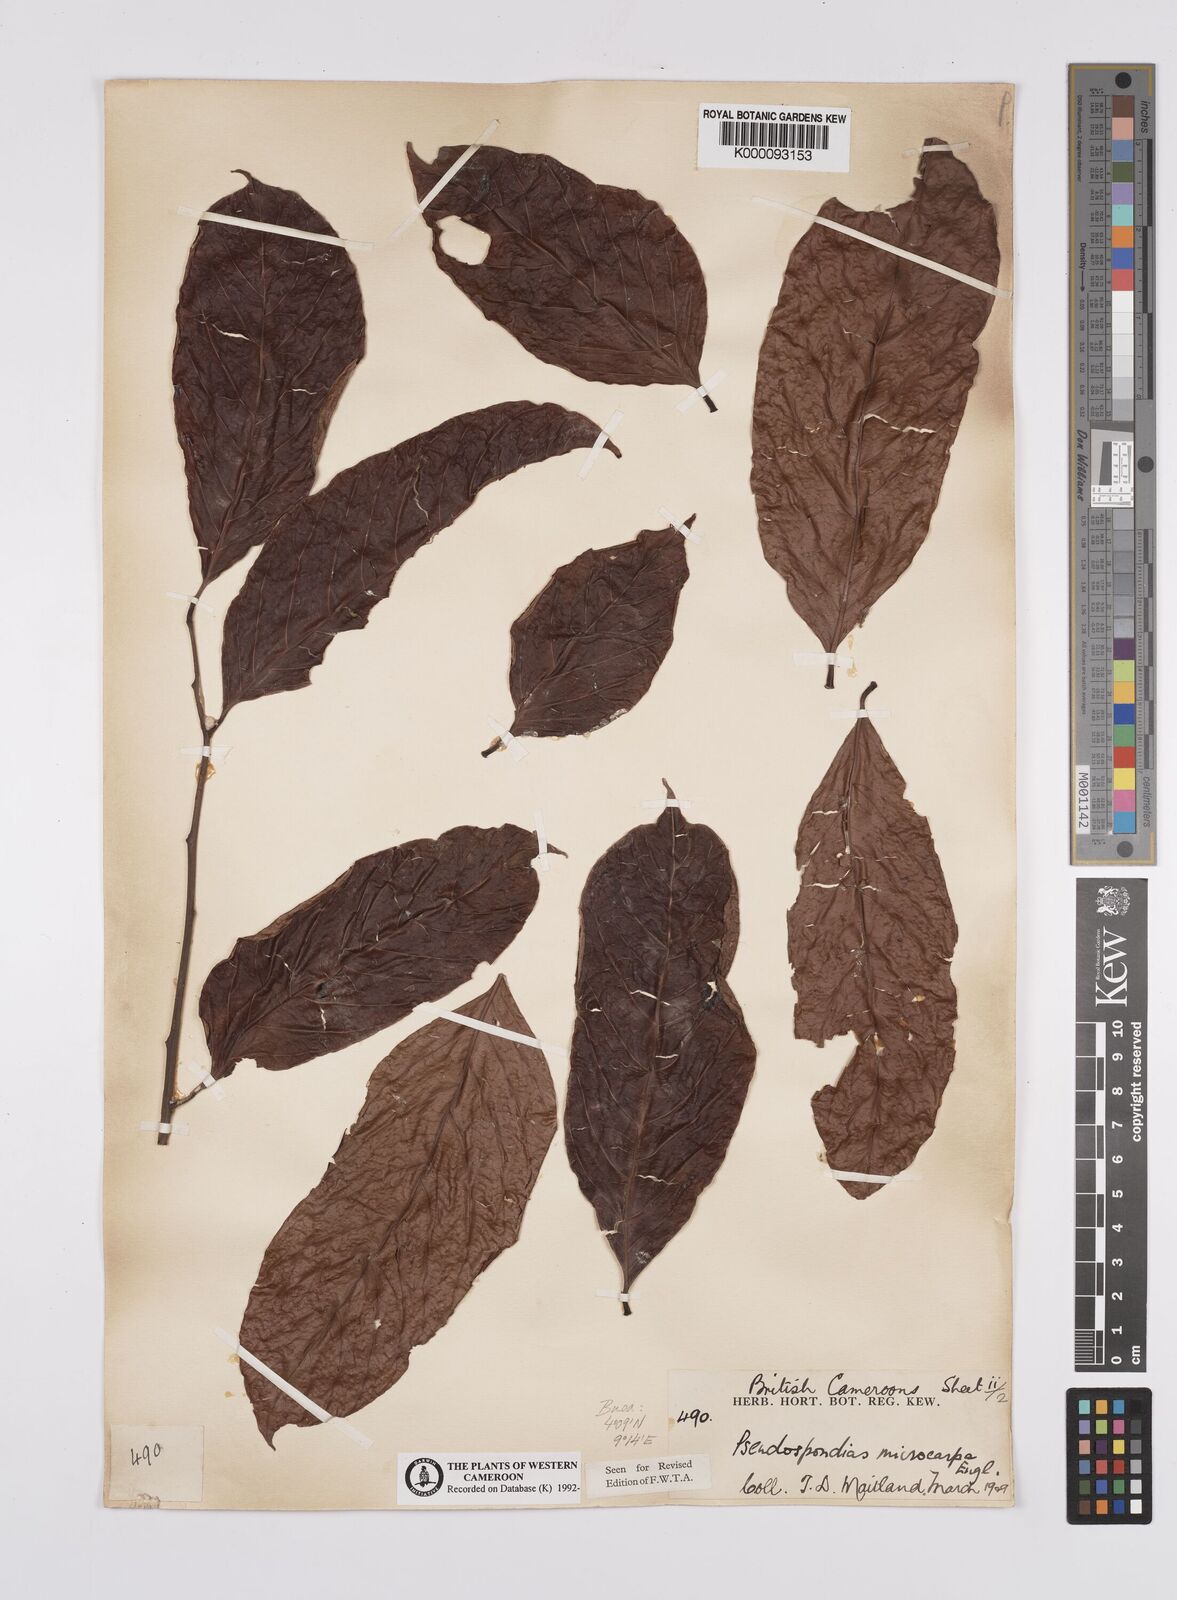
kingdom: Plantae
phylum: Tracheophyta
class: Magnoliopsida
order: Sapindales
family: Anacardiaceae
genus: Pseudospondias
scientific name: Pseudospondias microcarpa
